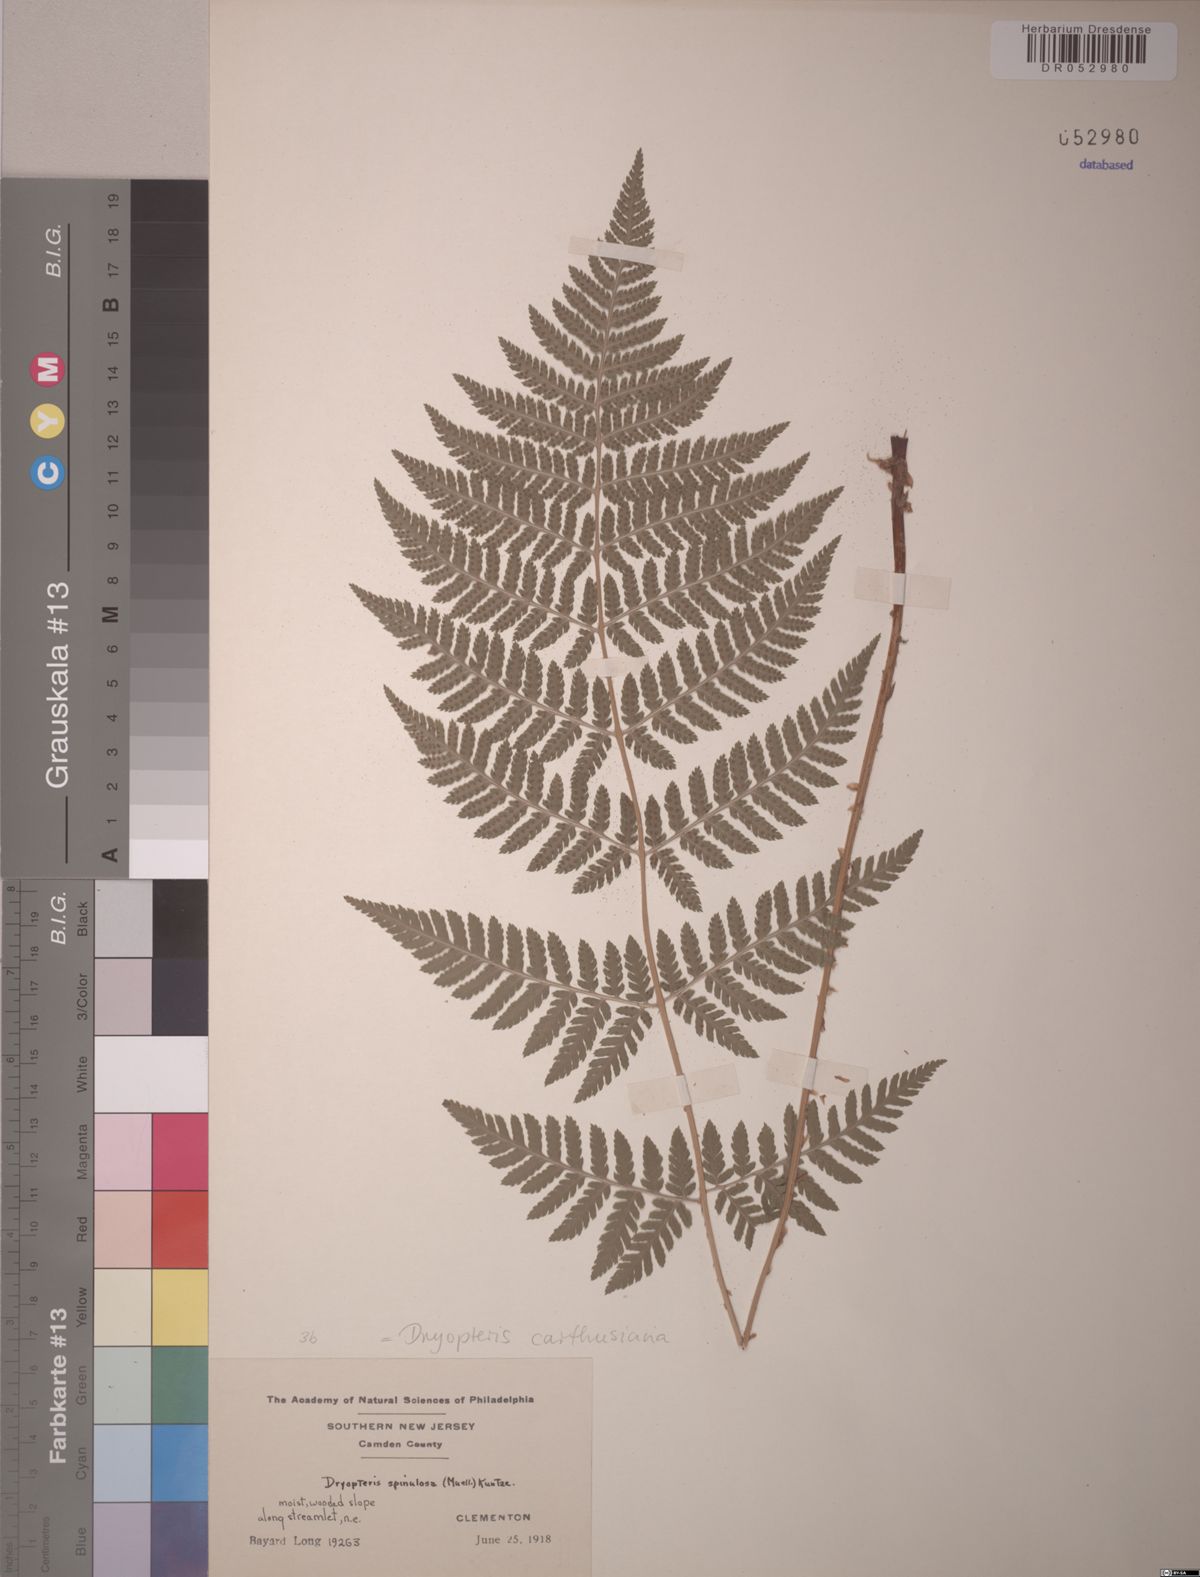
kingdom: Plantae
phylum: Tracheophyta
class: Polypodiopsida
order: Polypodiales
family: Dryopteridaceae
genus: Dryopteris
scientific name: Dryopteris carthusiana
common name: Narrow buckler-fern
